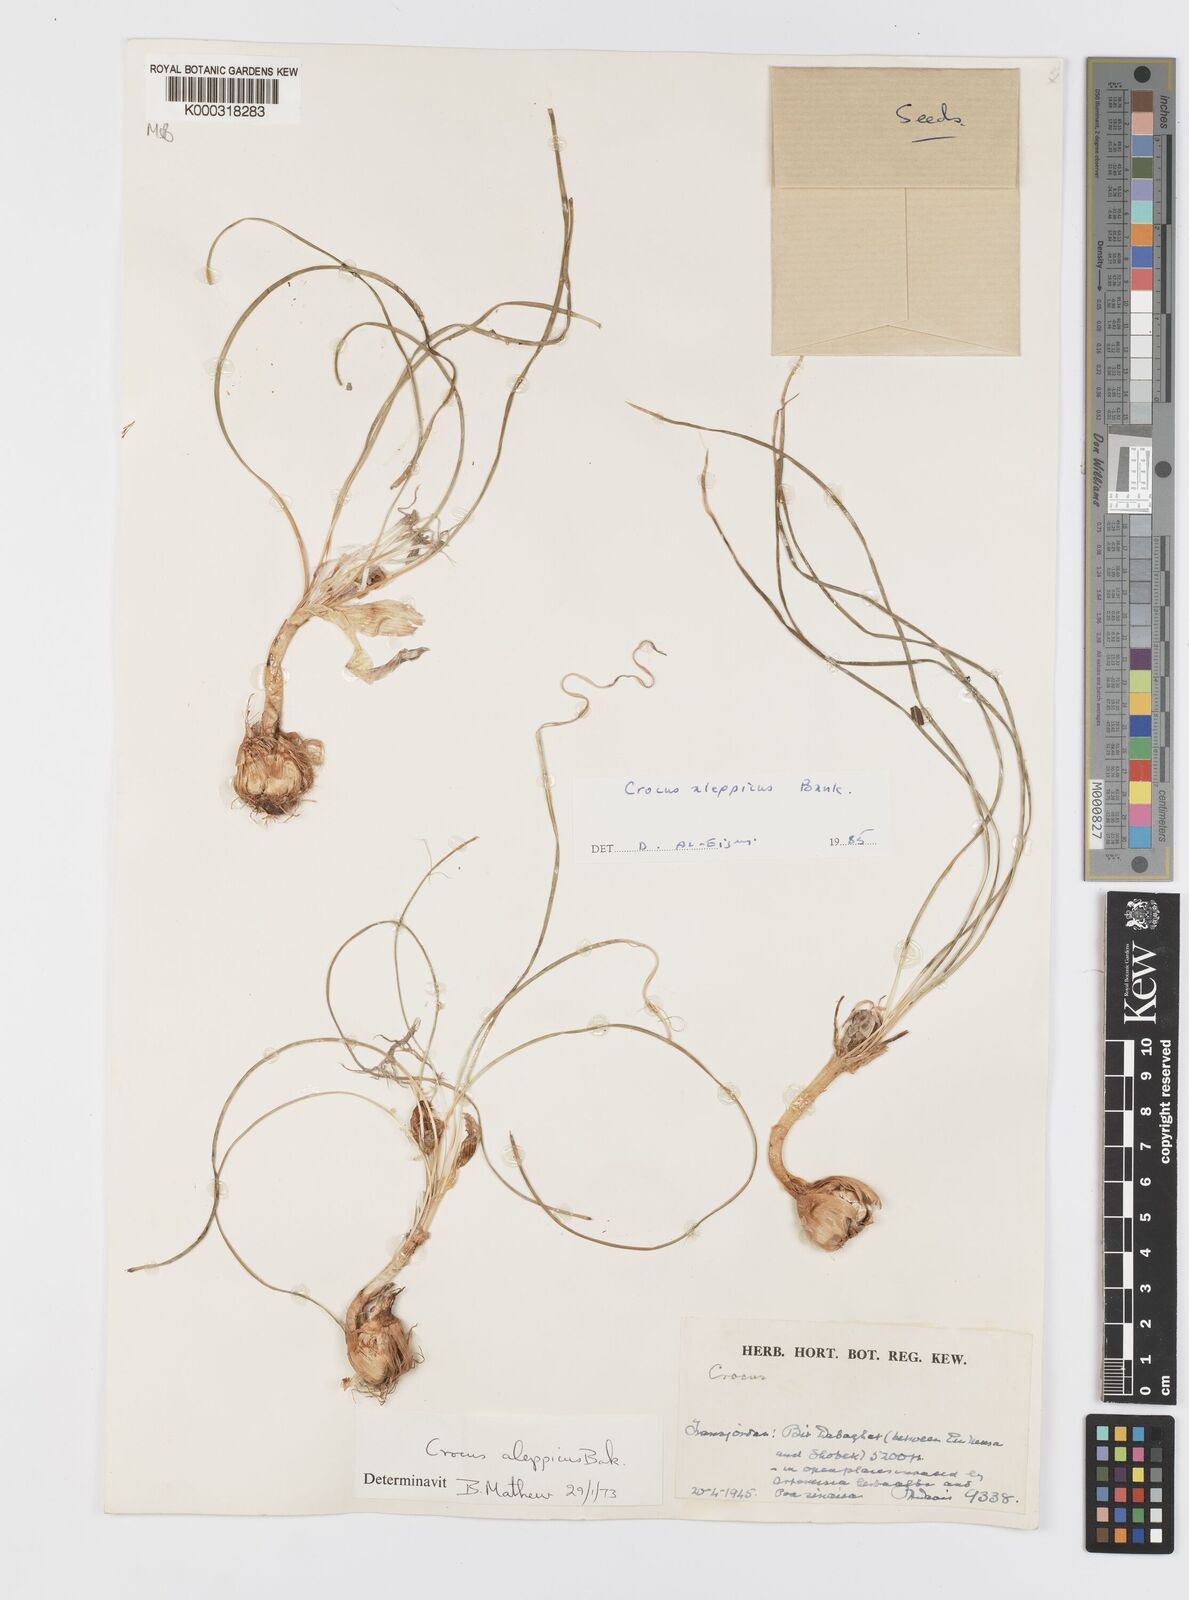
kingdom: Plantae
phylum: Tracheophyta
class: Liliopsida
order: Asparagales
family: Iridaceae
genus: Crocus
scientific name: Crocus aleppicus
